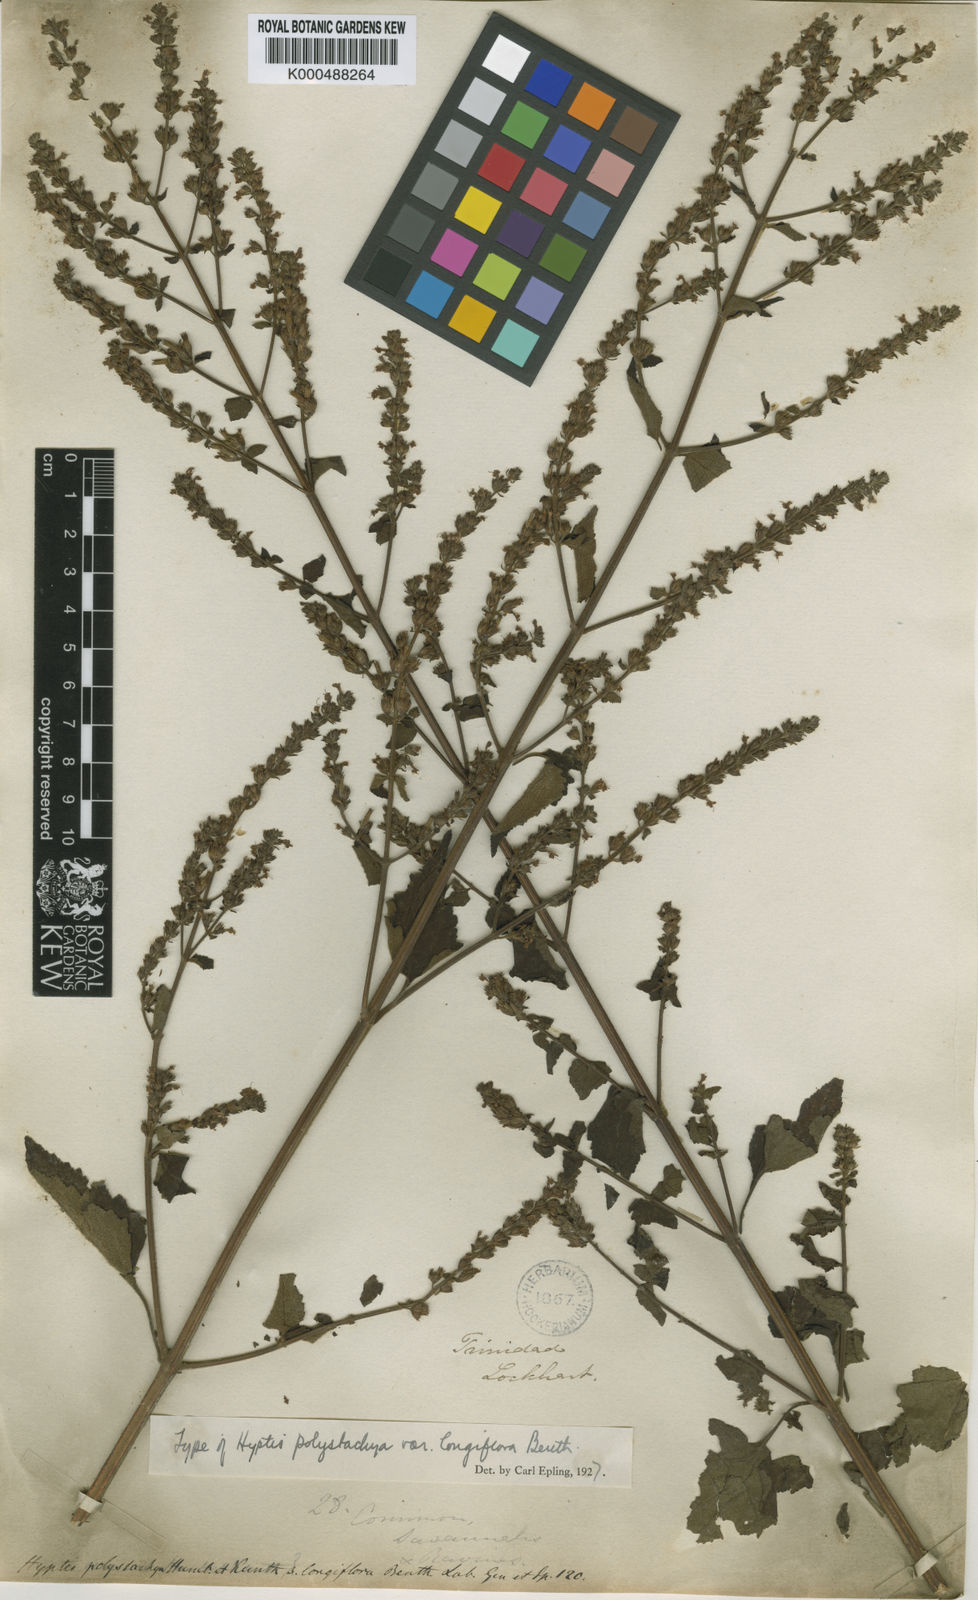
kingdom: Plantae
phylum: Tracheophyta
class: Magnoliopsida
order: Lamiales
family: Lamiaceae
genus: Cantinoa
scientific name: Cantinoa mutabilis
